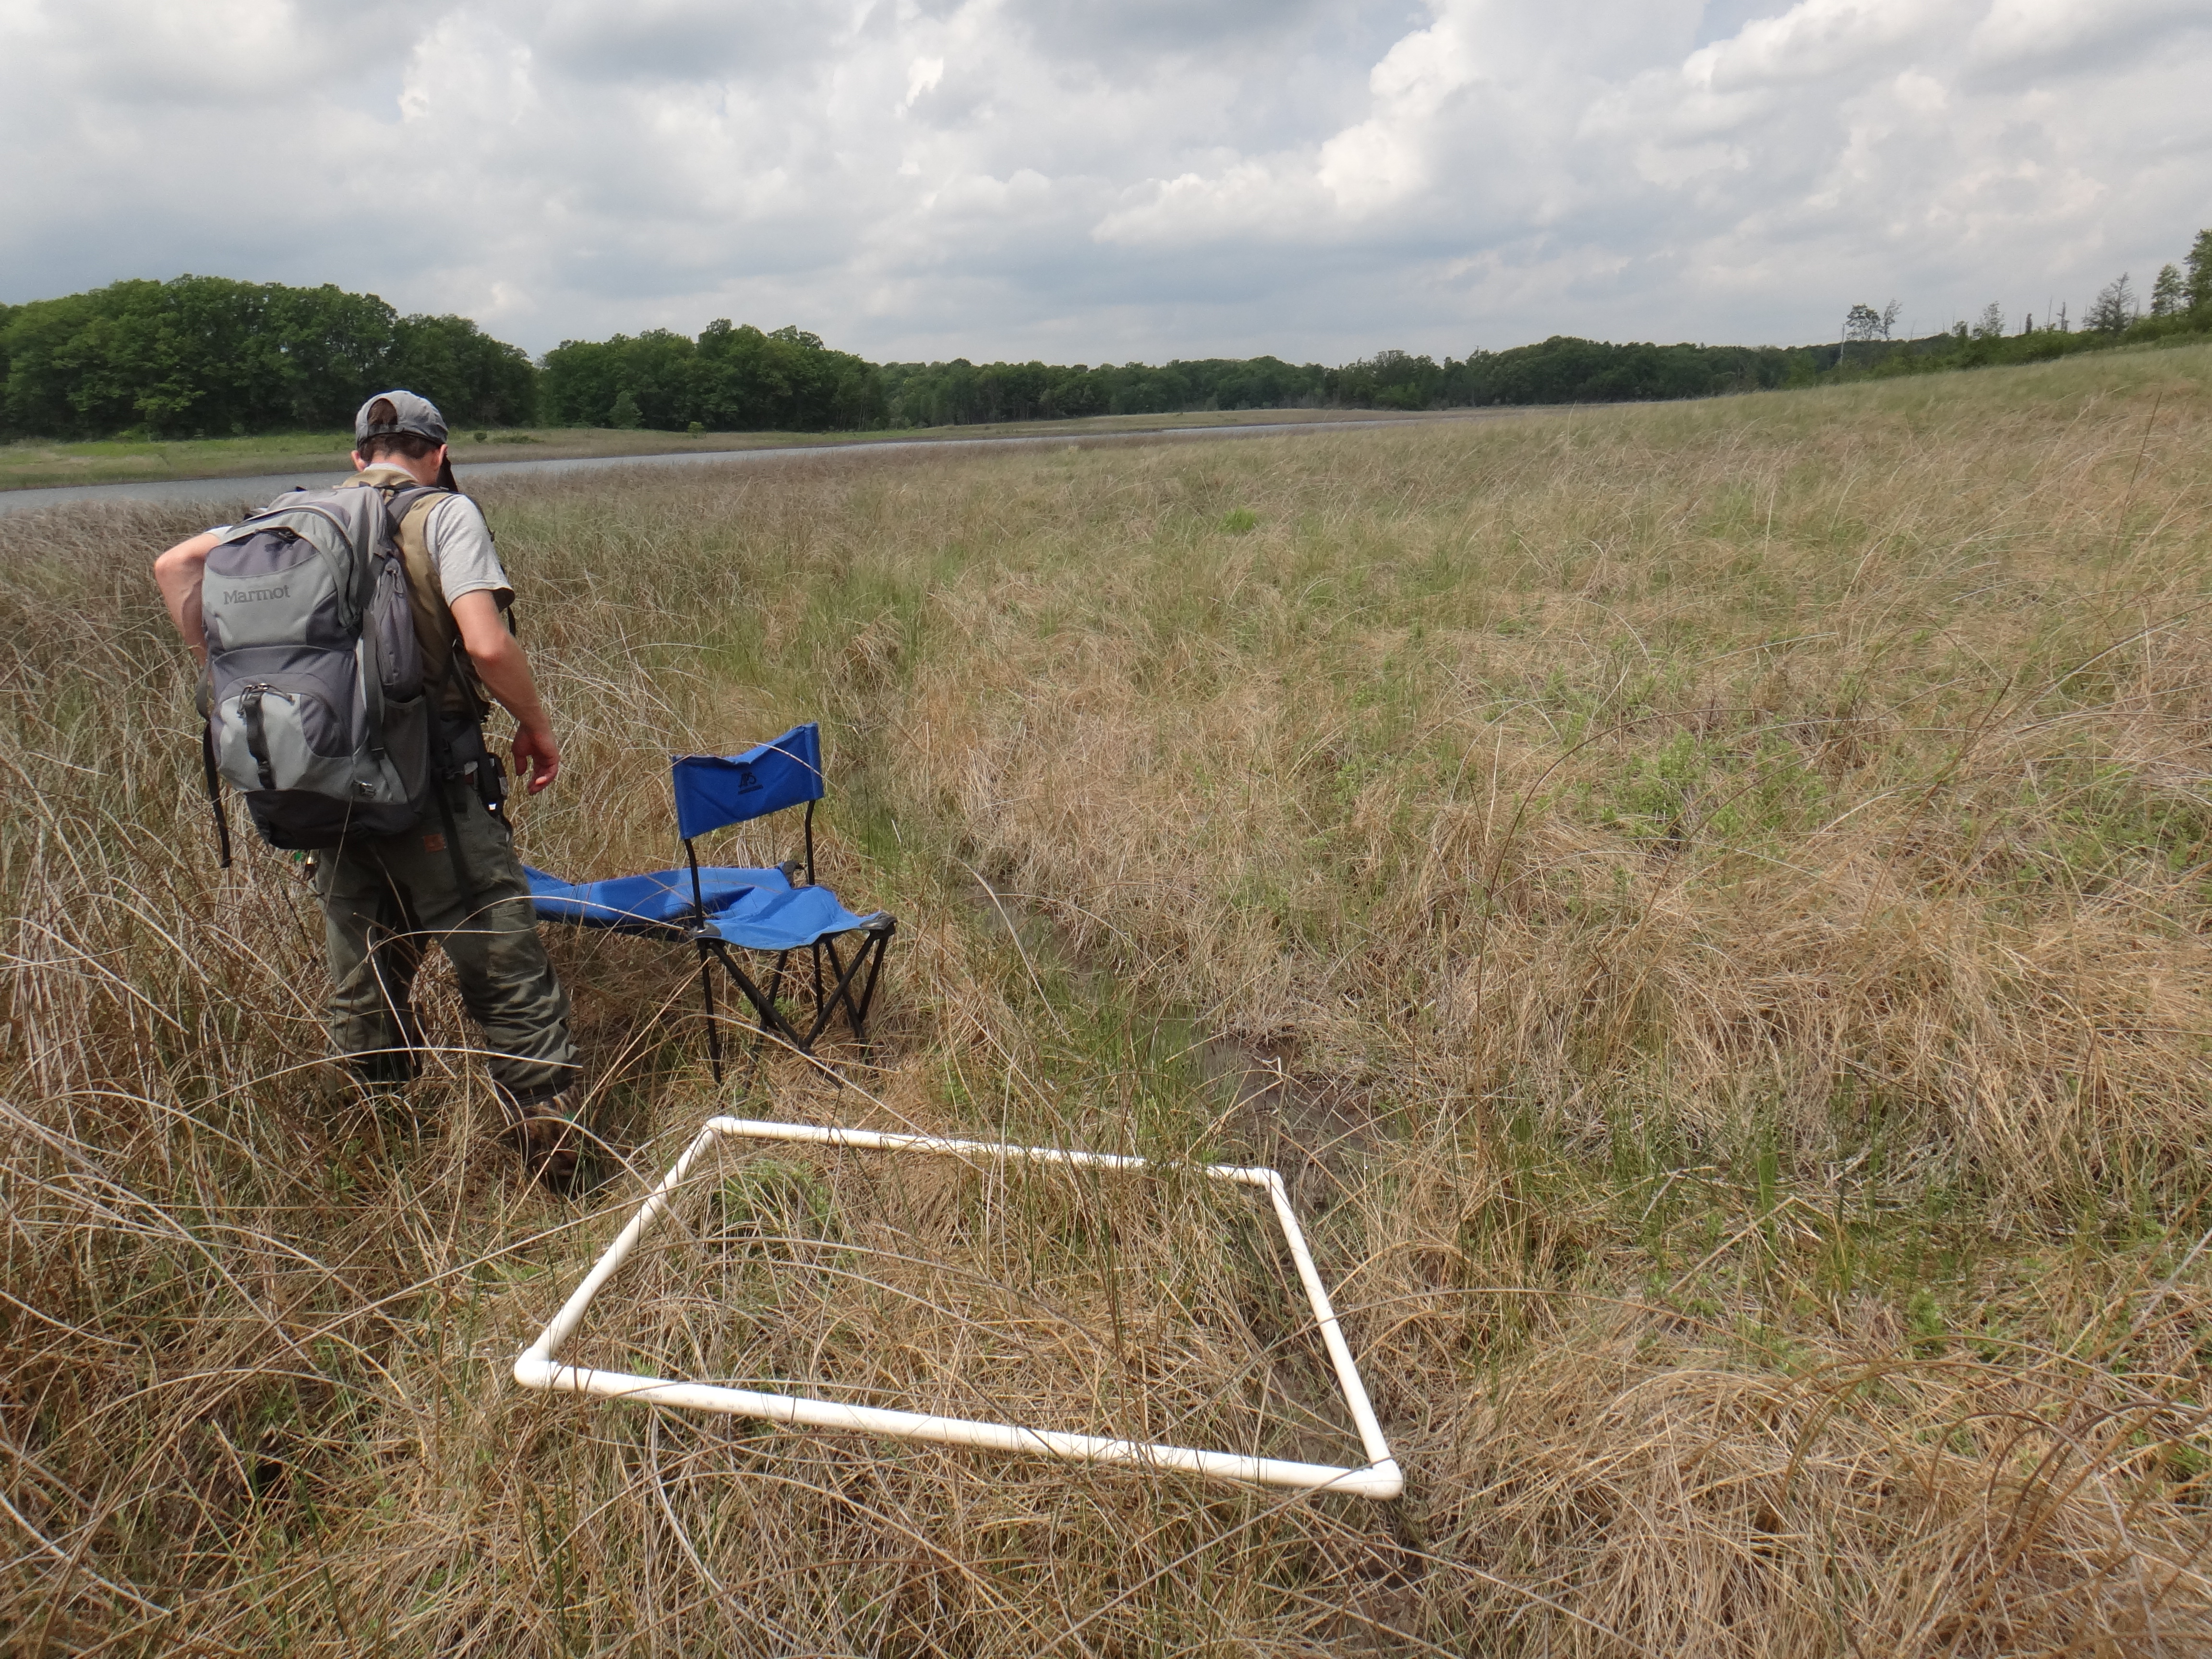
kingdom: Plantae
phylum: Tracheophyta
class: Liliopsida
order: Poales
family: Cyperaceae
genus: Carex
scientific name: Carex lasiocarpa
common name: Slender sedge
